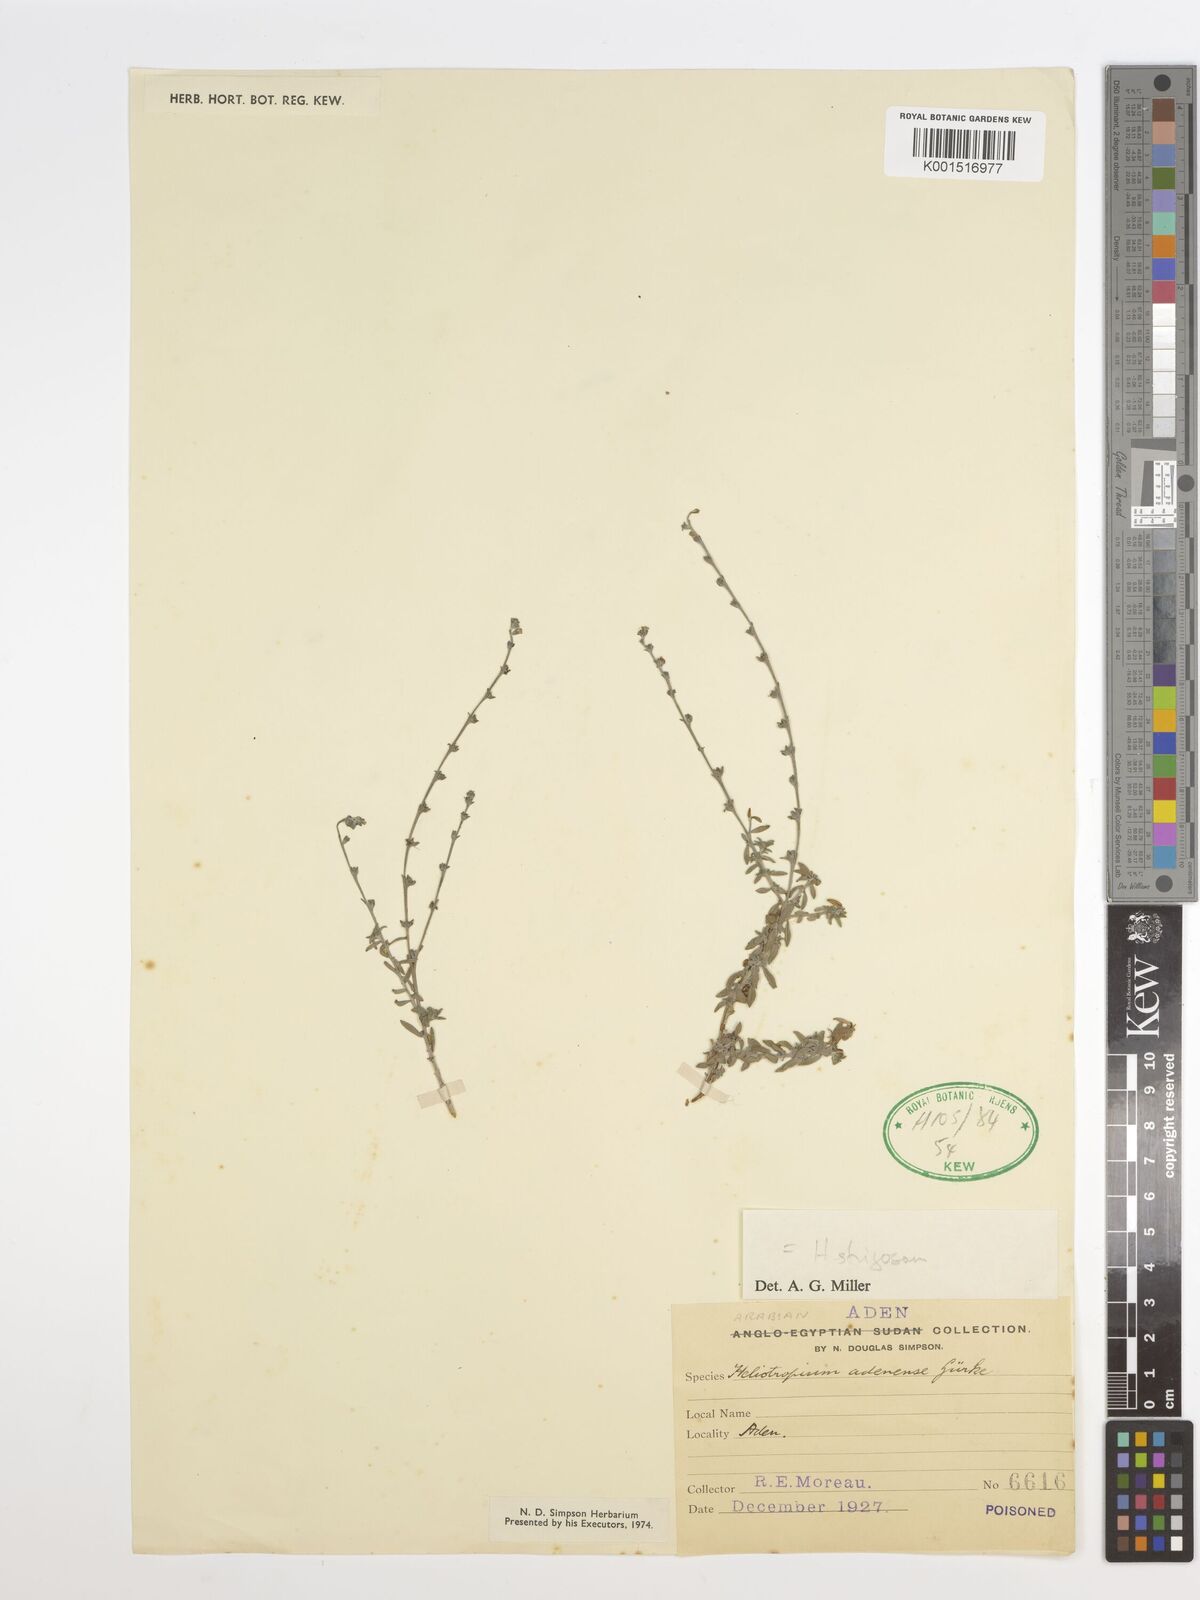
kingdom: Plantae
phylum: Tracheophyta
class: Magnoliopsida
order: Boraginales
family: Heliotropiaceae
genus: Heliotropium
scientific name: Heliotropium adenense
